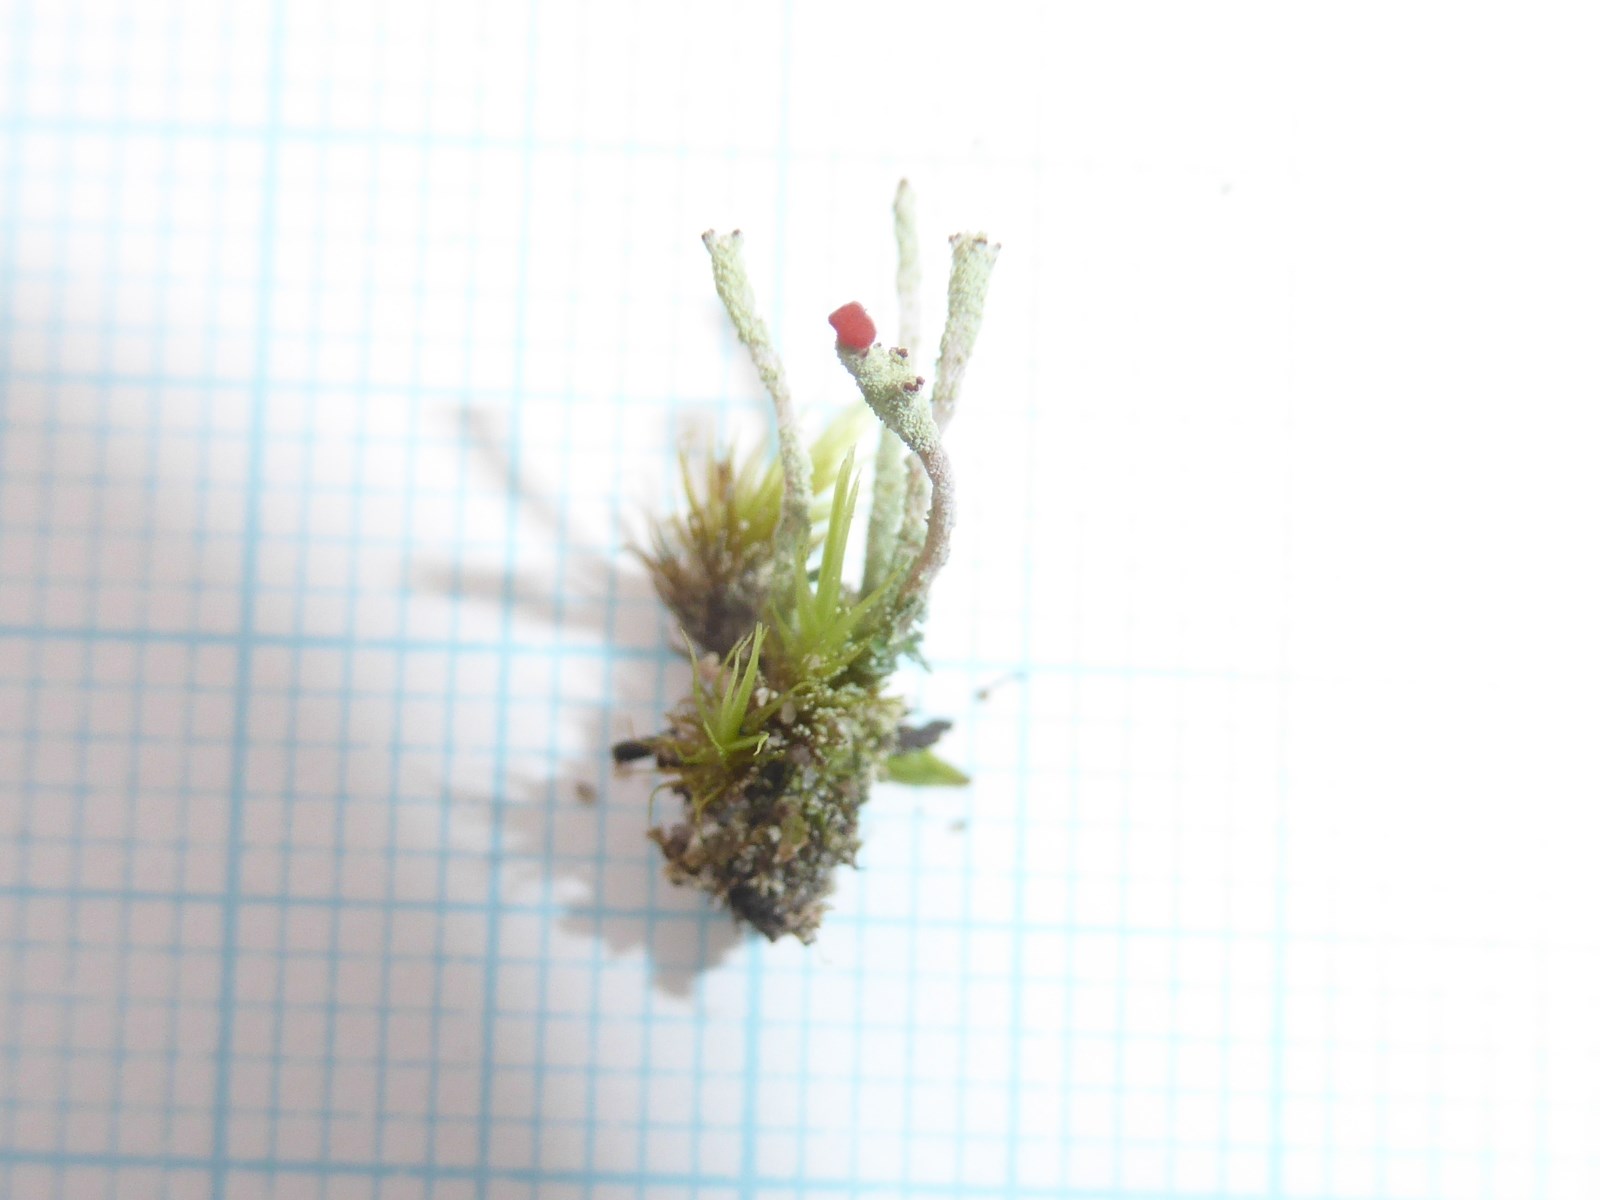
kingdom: Fungi
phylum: Ascomycota
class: Lecanoromycetes
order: Lecanorales
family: Cladoniaceae
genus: Cladonia
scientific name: Cladonia macilenta
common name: indsvunden bægerlav
